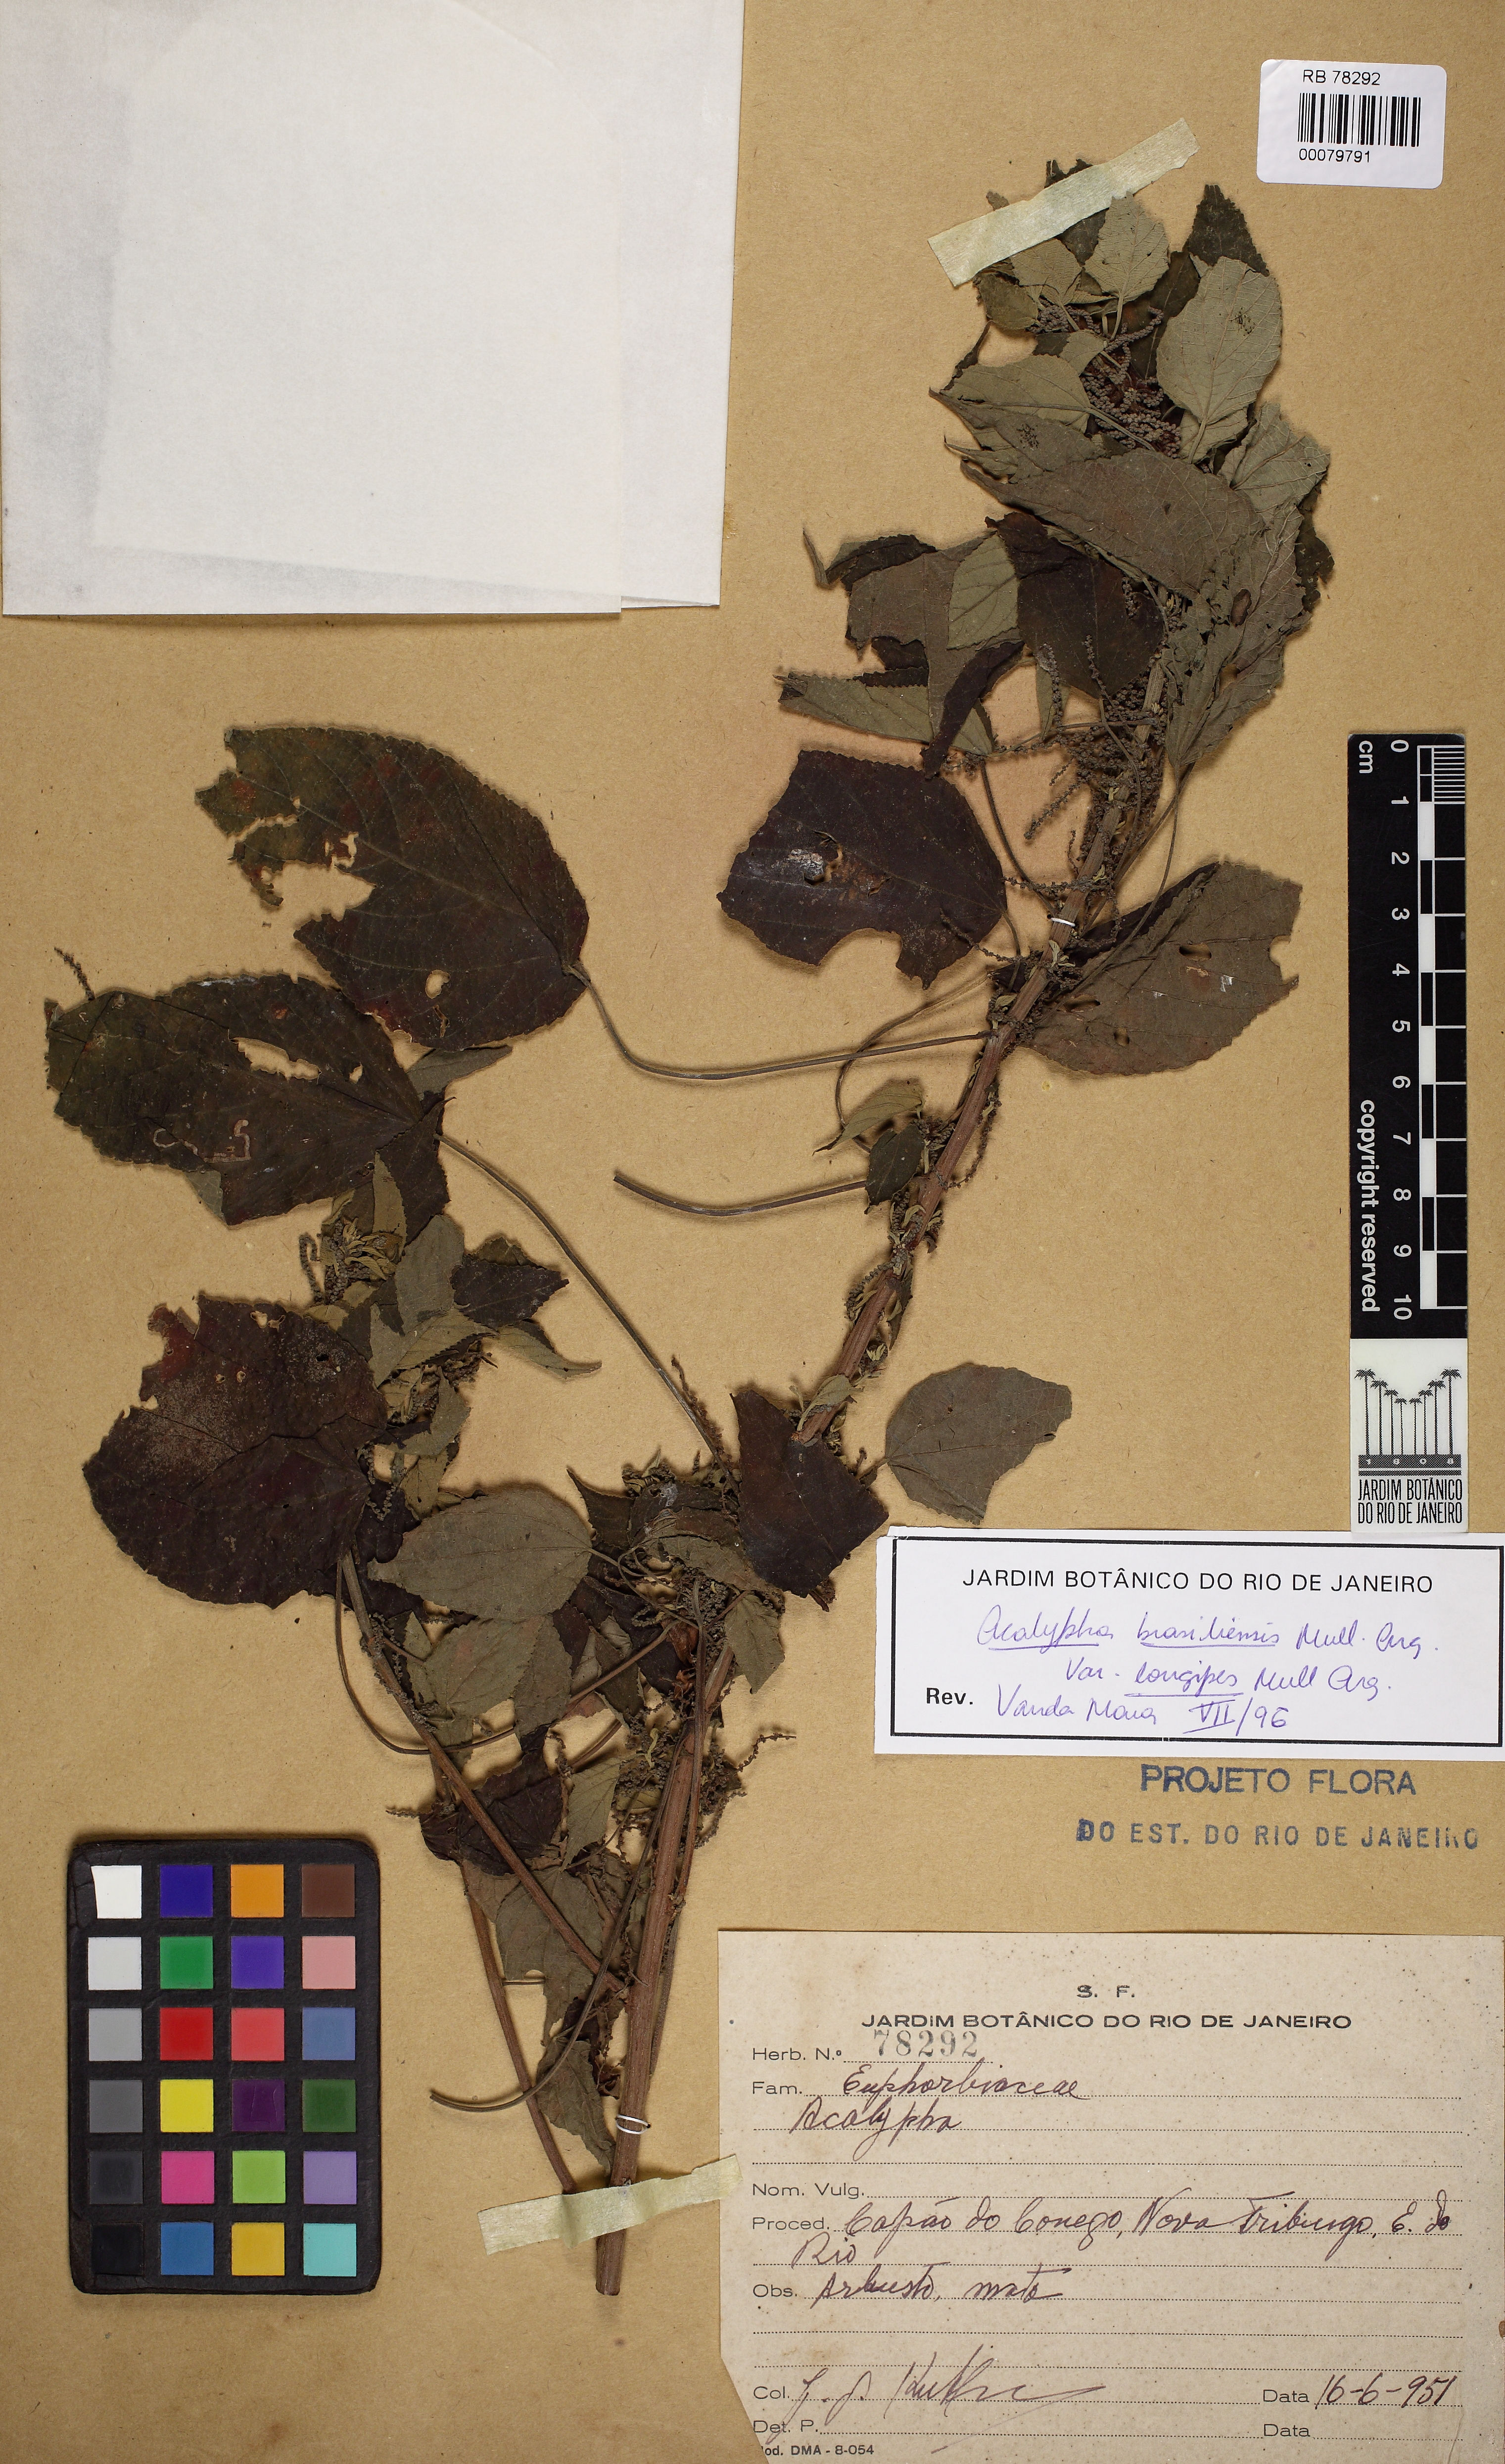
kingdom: Plantae
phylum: Tracheophyta
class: Magnoliopsida
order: Malpighiales
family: Euphorbiaceae
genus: Acalypha
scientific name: Acalypha brasiliensis
